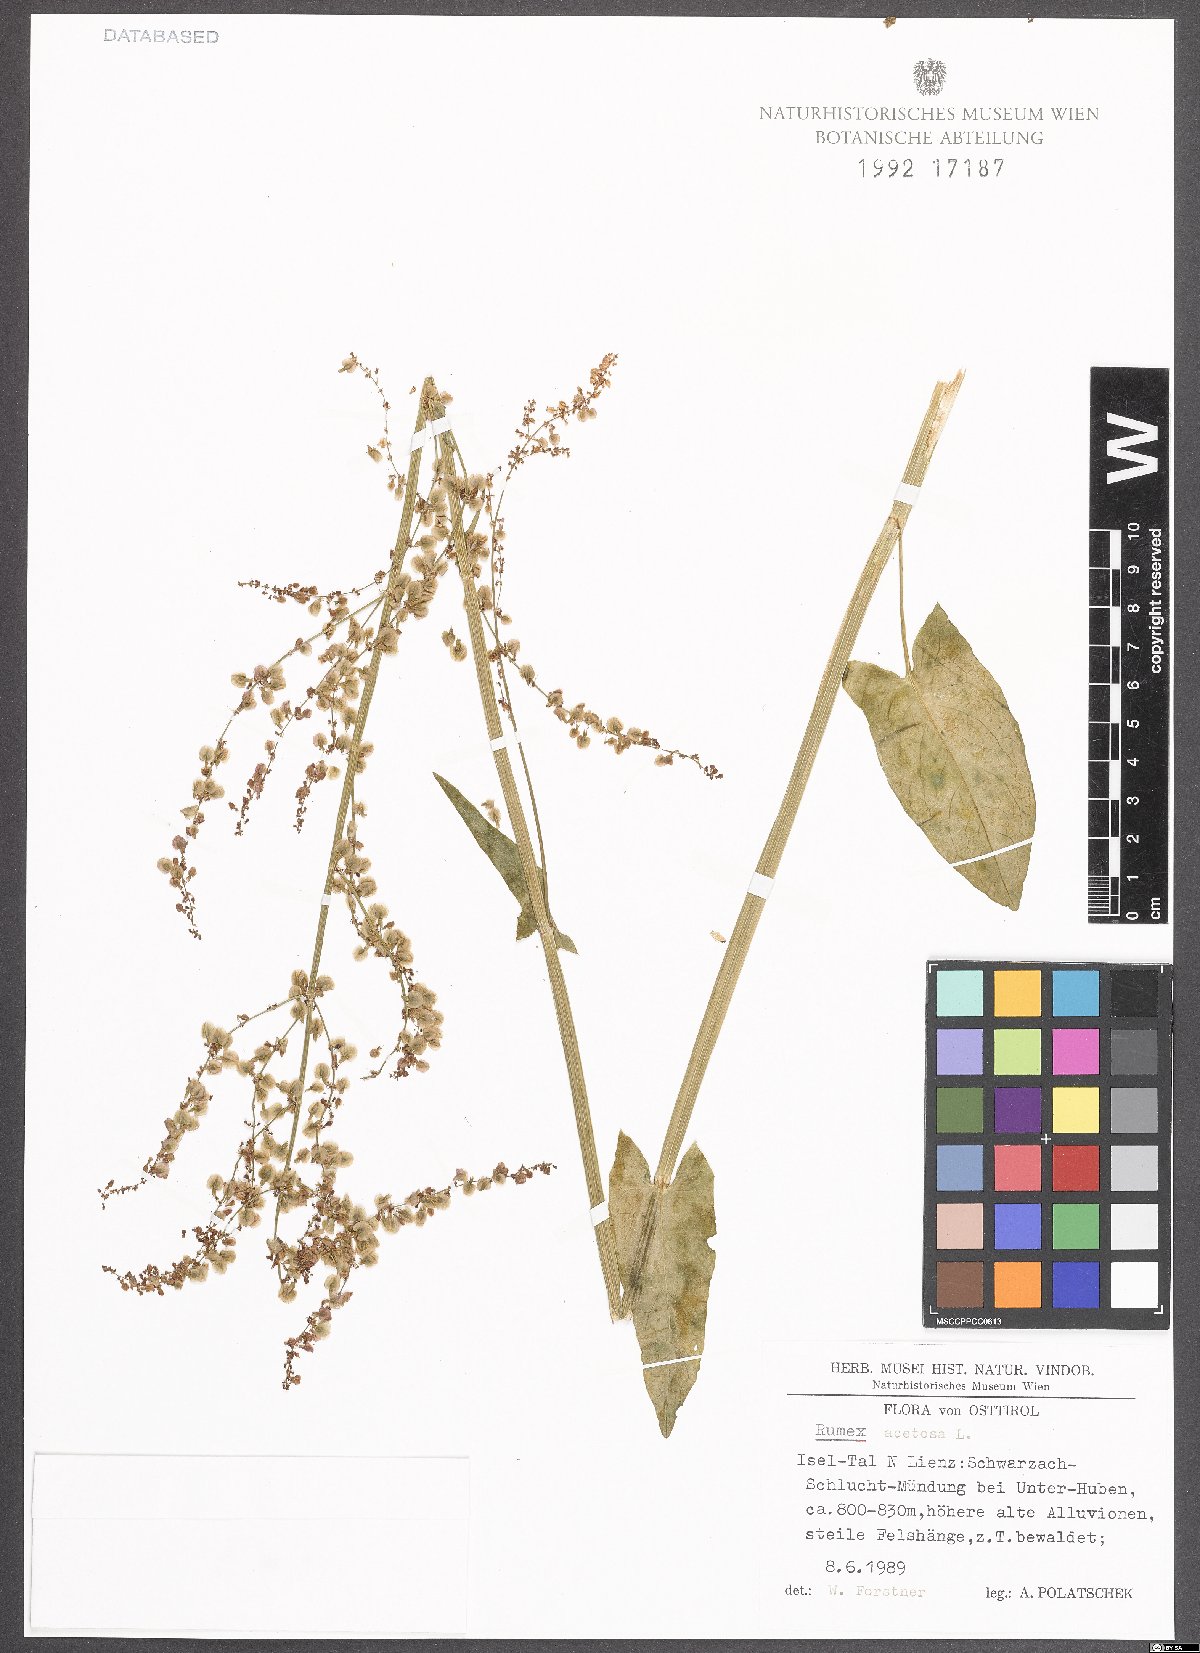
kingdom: Plantae
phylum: Tracheophyta
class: Magnoliopsida
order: Caryophyllales
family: Polygonaceae
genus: Rumex
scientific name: Rumex acetosa
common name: Garden sorrel
